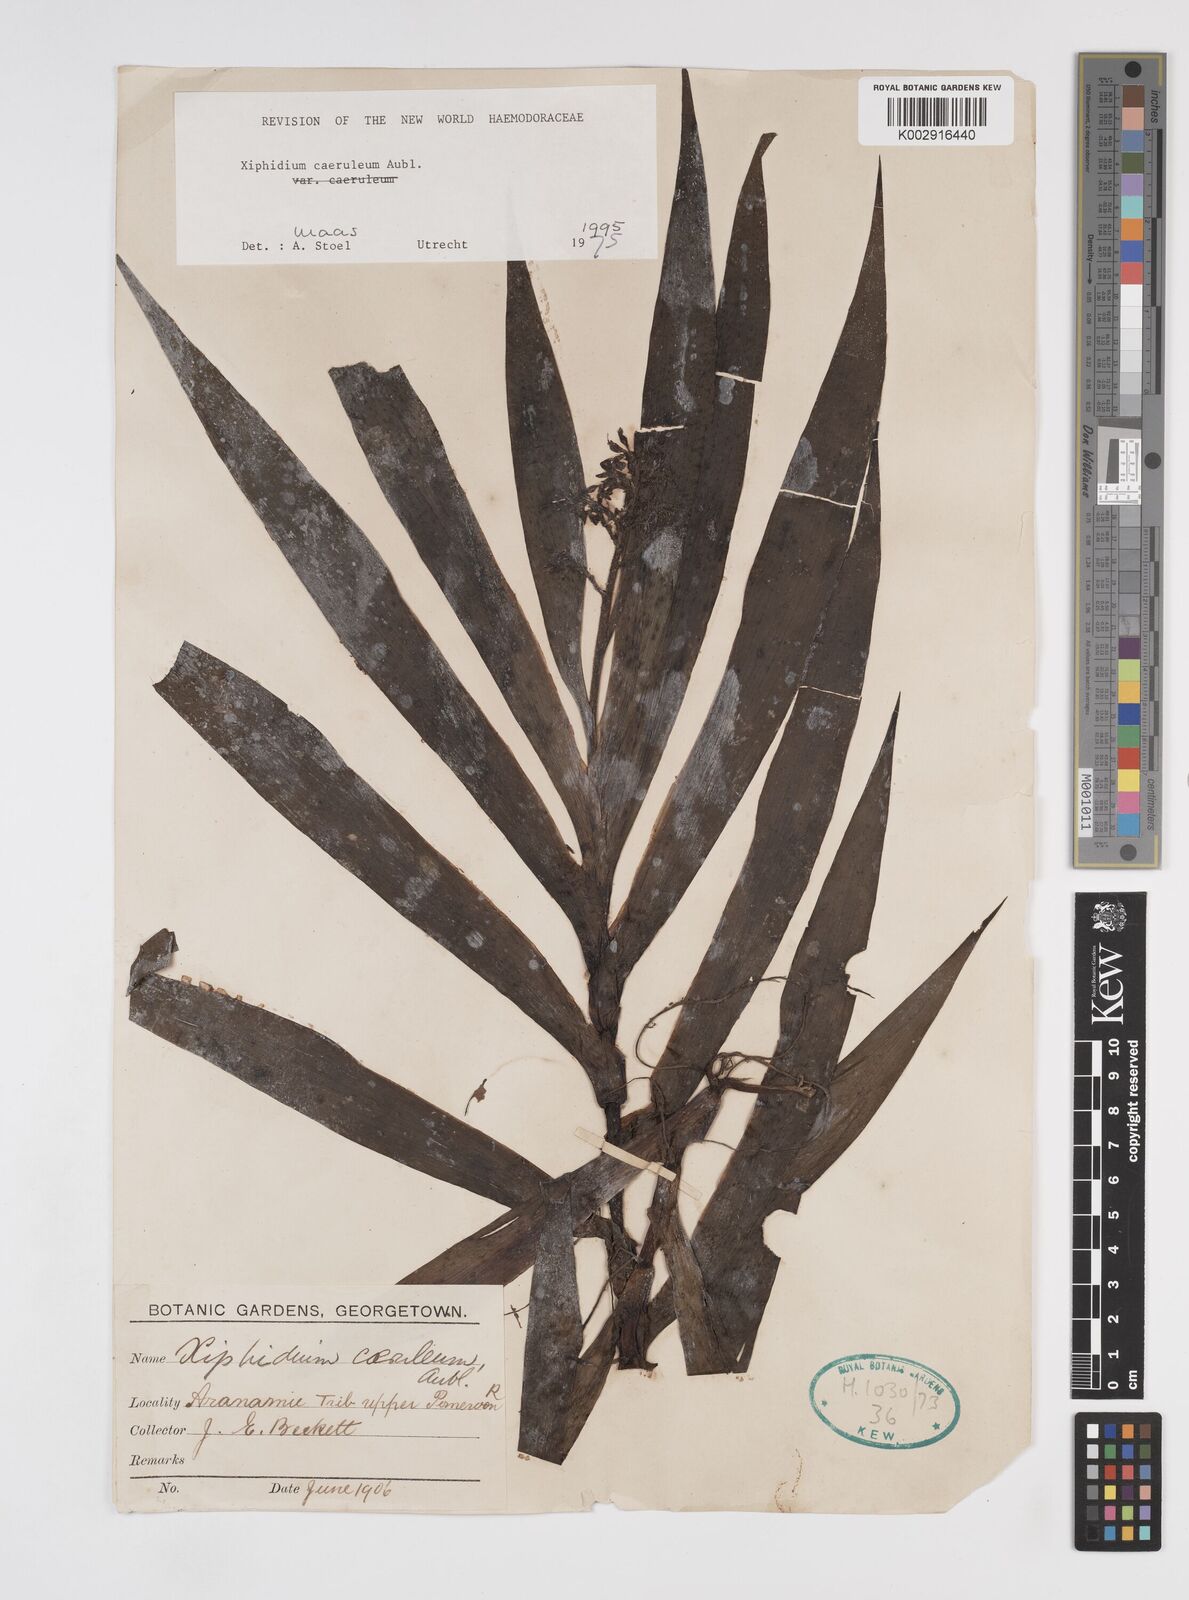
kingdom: Plantae
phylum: Tracheophyta
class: Liliopsida
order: Commelinales
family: Haemodoraceae
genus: Xiphidium
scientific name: Xiphidium caeruleum
